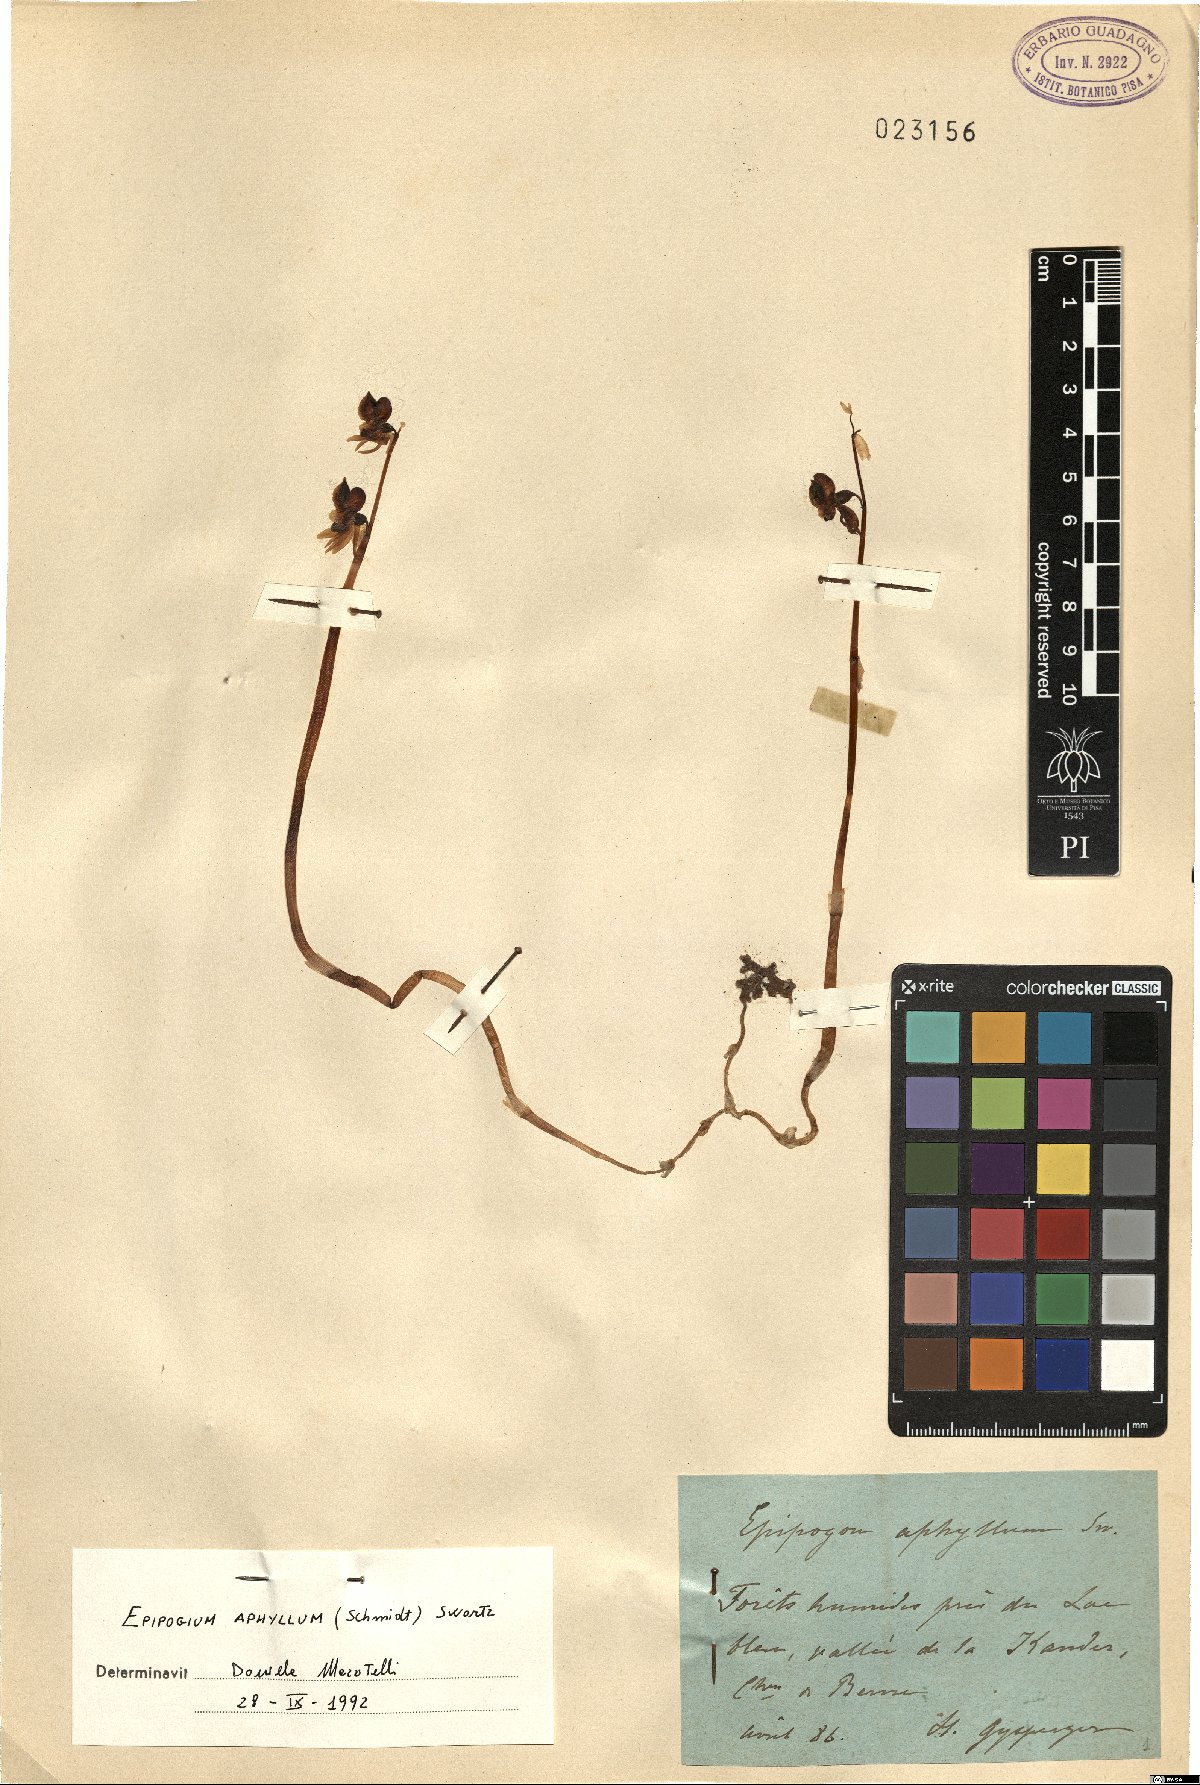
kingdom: Plantae
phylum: Tracheophyta
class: Liliopsida
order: Asparagales
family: Orchidaceae
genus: Epipogium
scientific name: Epipogium aphyllum
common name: Ghost orchid
